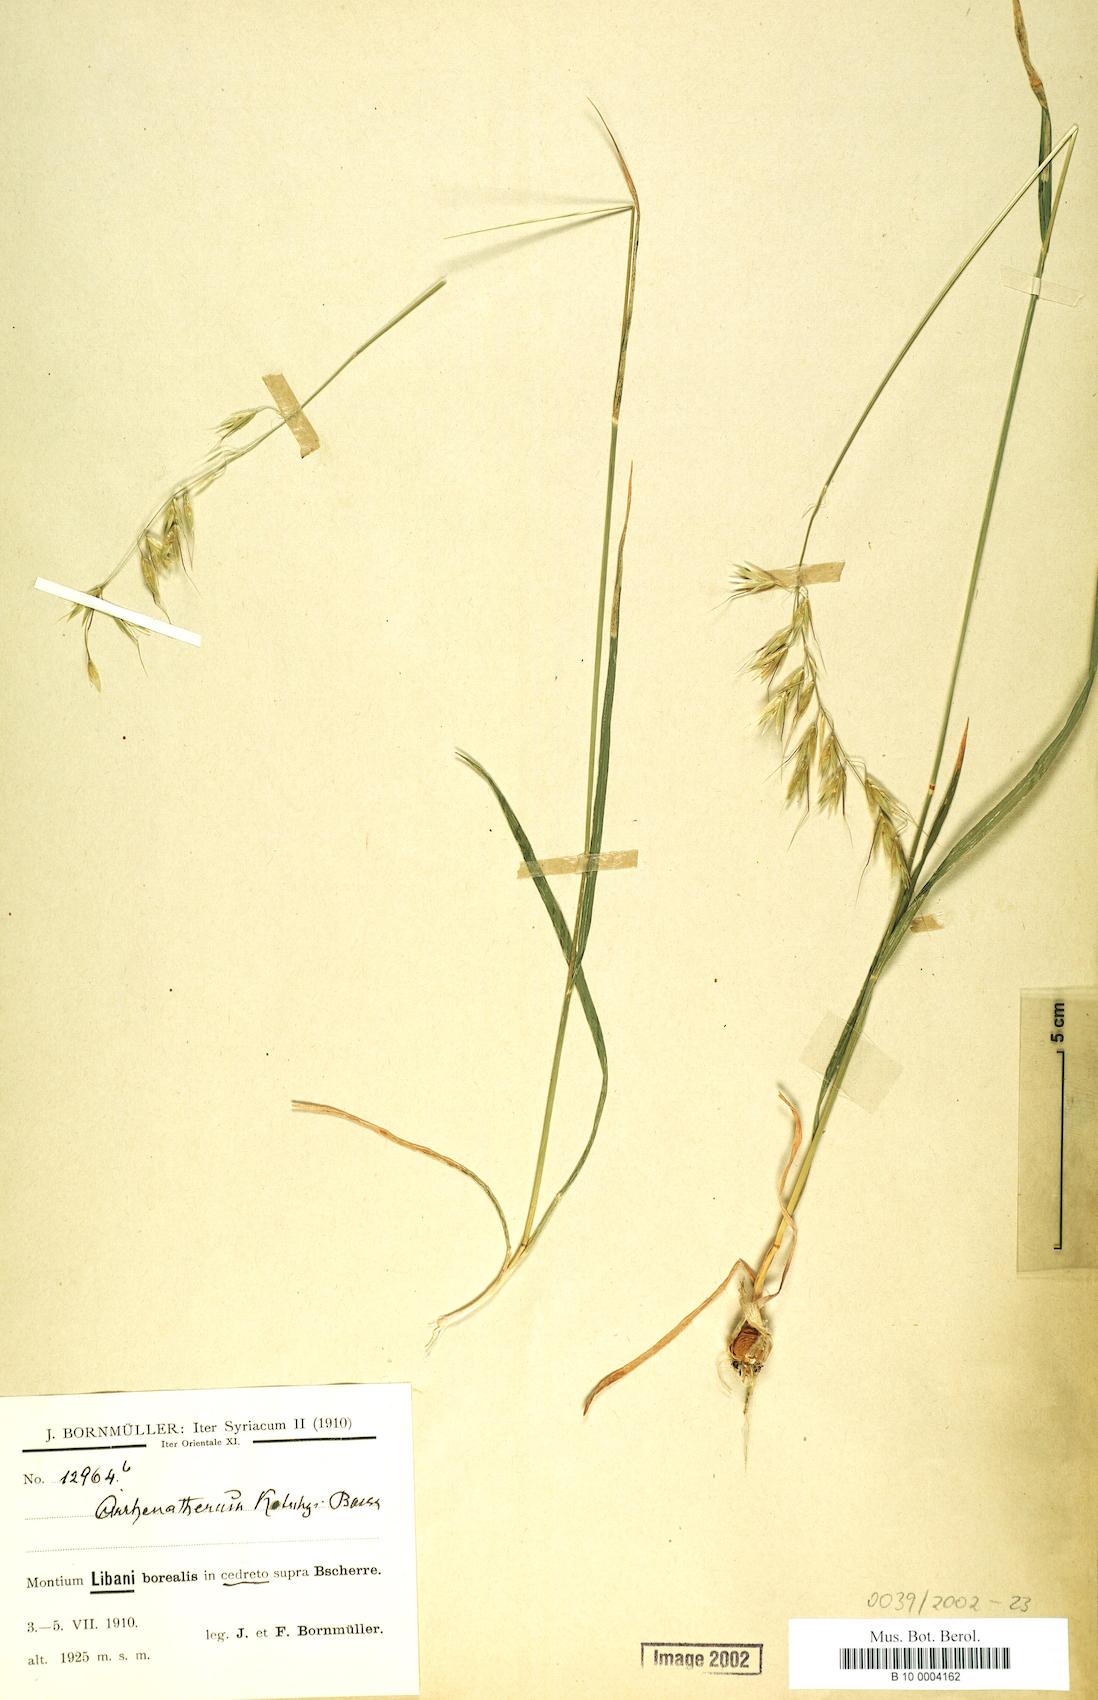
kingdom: Plantae
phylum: Tracheophyta
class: Liliopsida
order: Poales
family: Poaceae
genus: Arrhenatherum
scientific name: Arrhenatherum kotschyi
